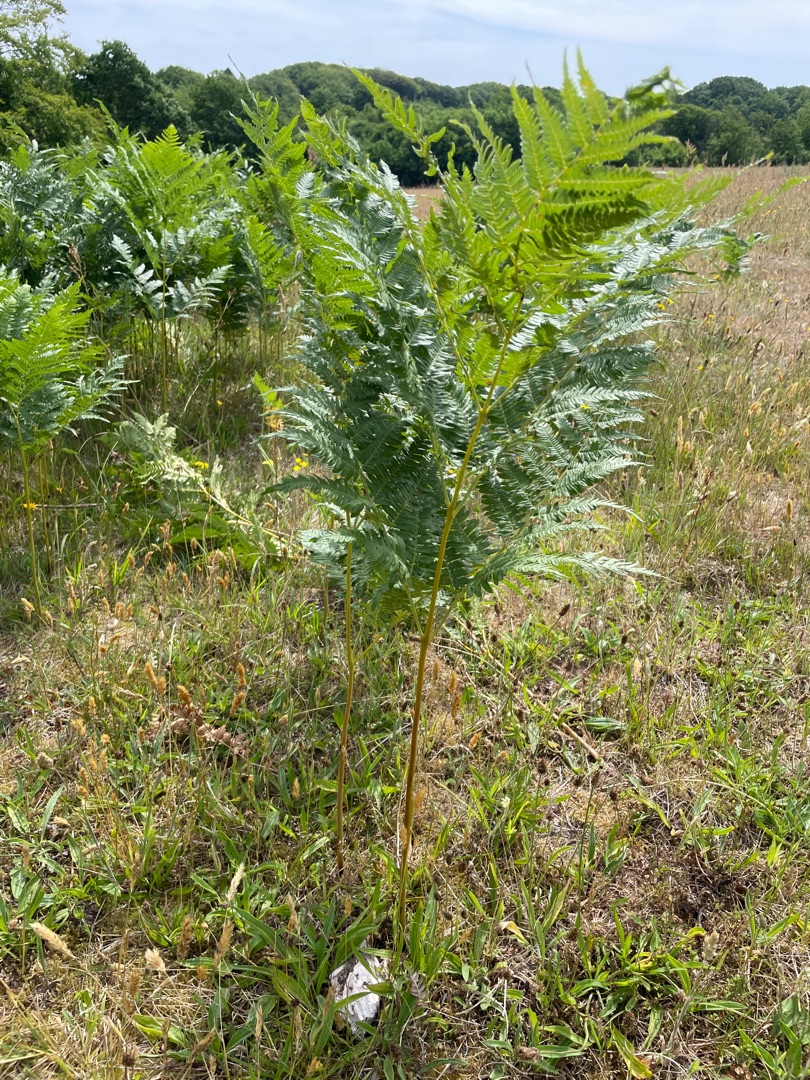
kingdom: Plantae
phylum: Tracheophyta
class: Polypodiopsida
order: Polypodiales
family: Dennstaedtiaceae
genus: Pteridium
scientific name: Pteridium aquilinum
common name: Ørnebregne
